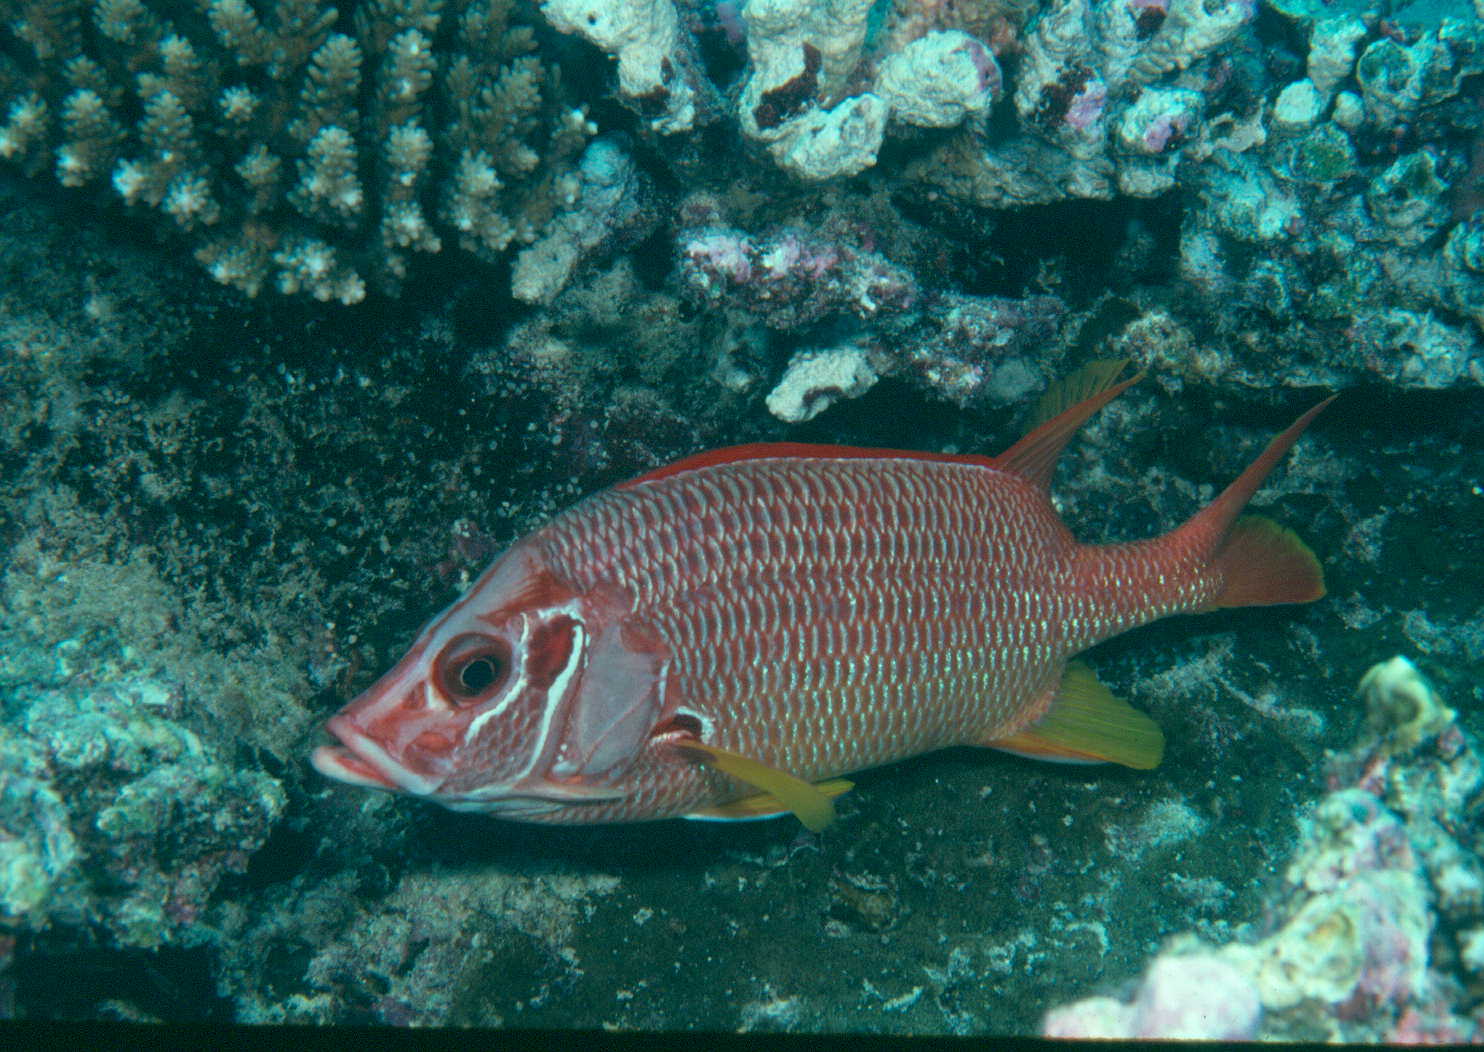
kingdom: Animalia
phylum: Chordata
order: Beryciformes
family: Holocentridae
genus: Sargocentron
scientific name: Sargocentron spiniferum
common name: Giant squirrelfish
